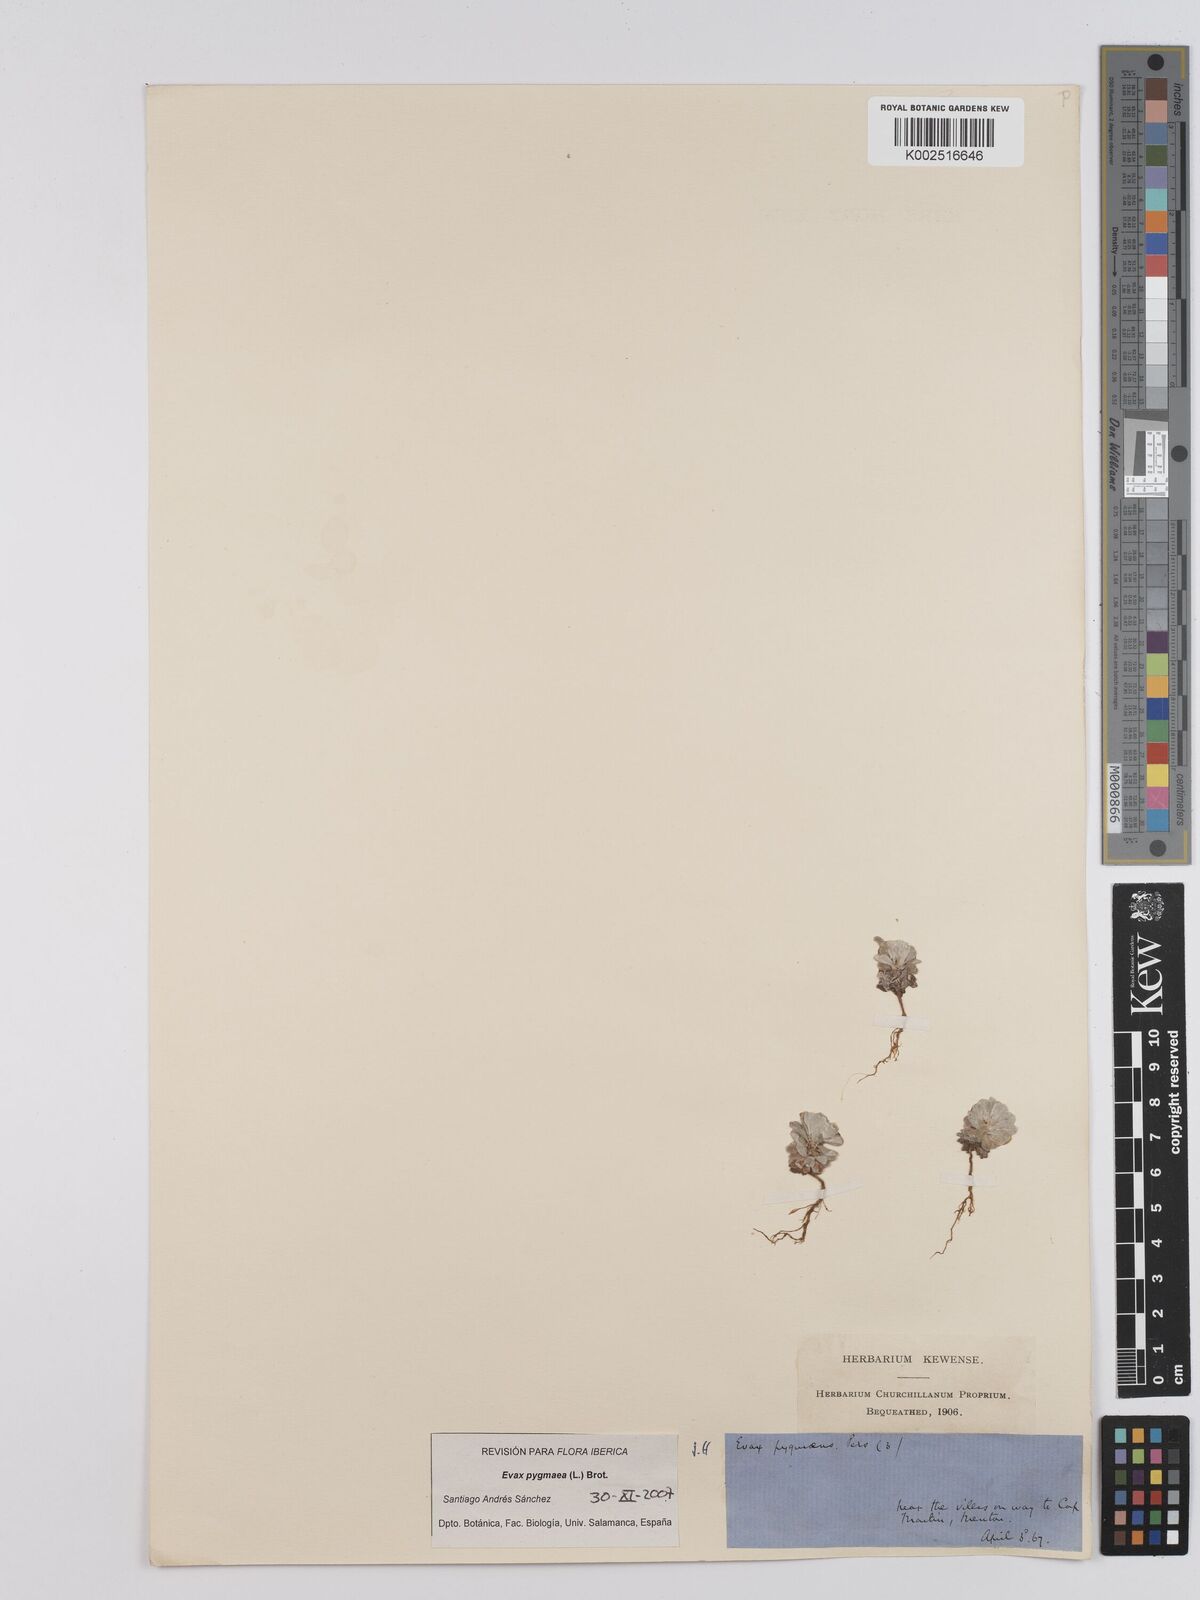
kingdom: Plantae
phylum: Tracheophyta
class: Magnoliopsida
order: Asterales
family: Asteraceae
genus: Filago
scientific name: Filago pygmaea
